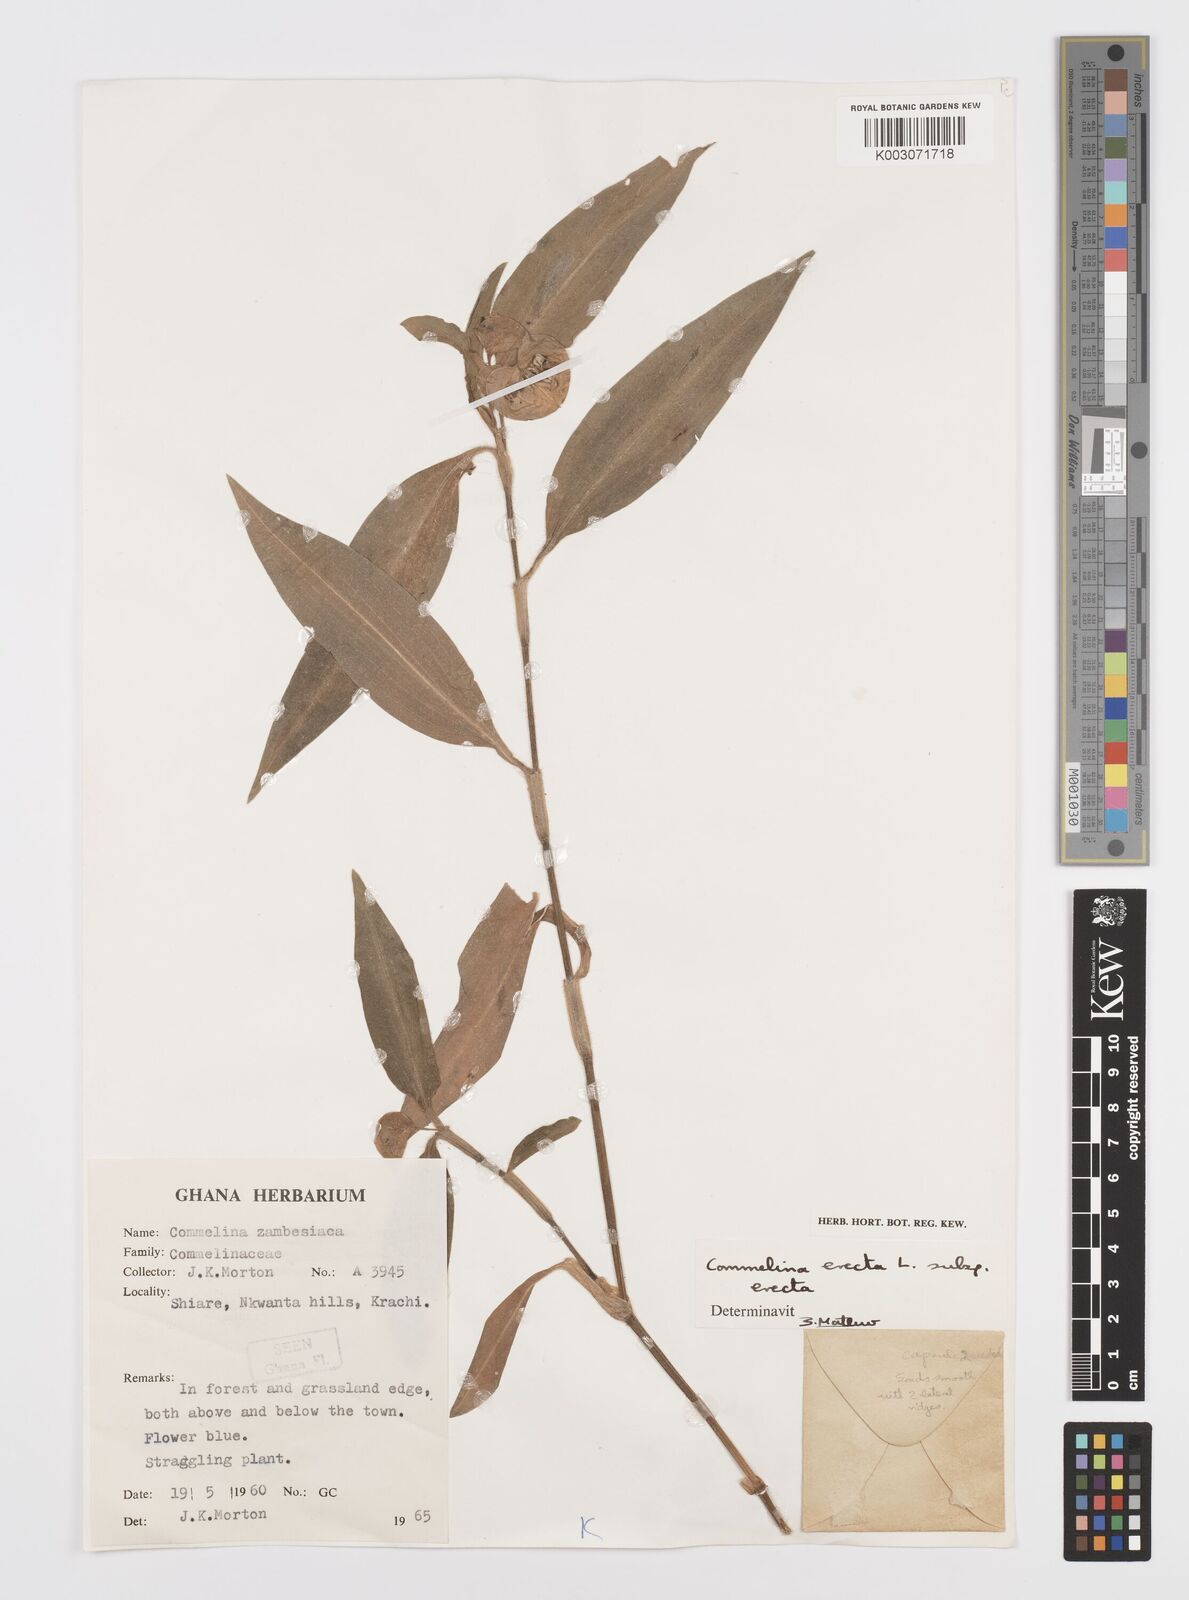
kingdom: Plantae
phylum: Tracheophyta
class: Liliopsida
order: Commelinales
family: Commelinaceae
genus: Commelina
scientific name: Commelina erecta
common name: Blousel blommetjie
